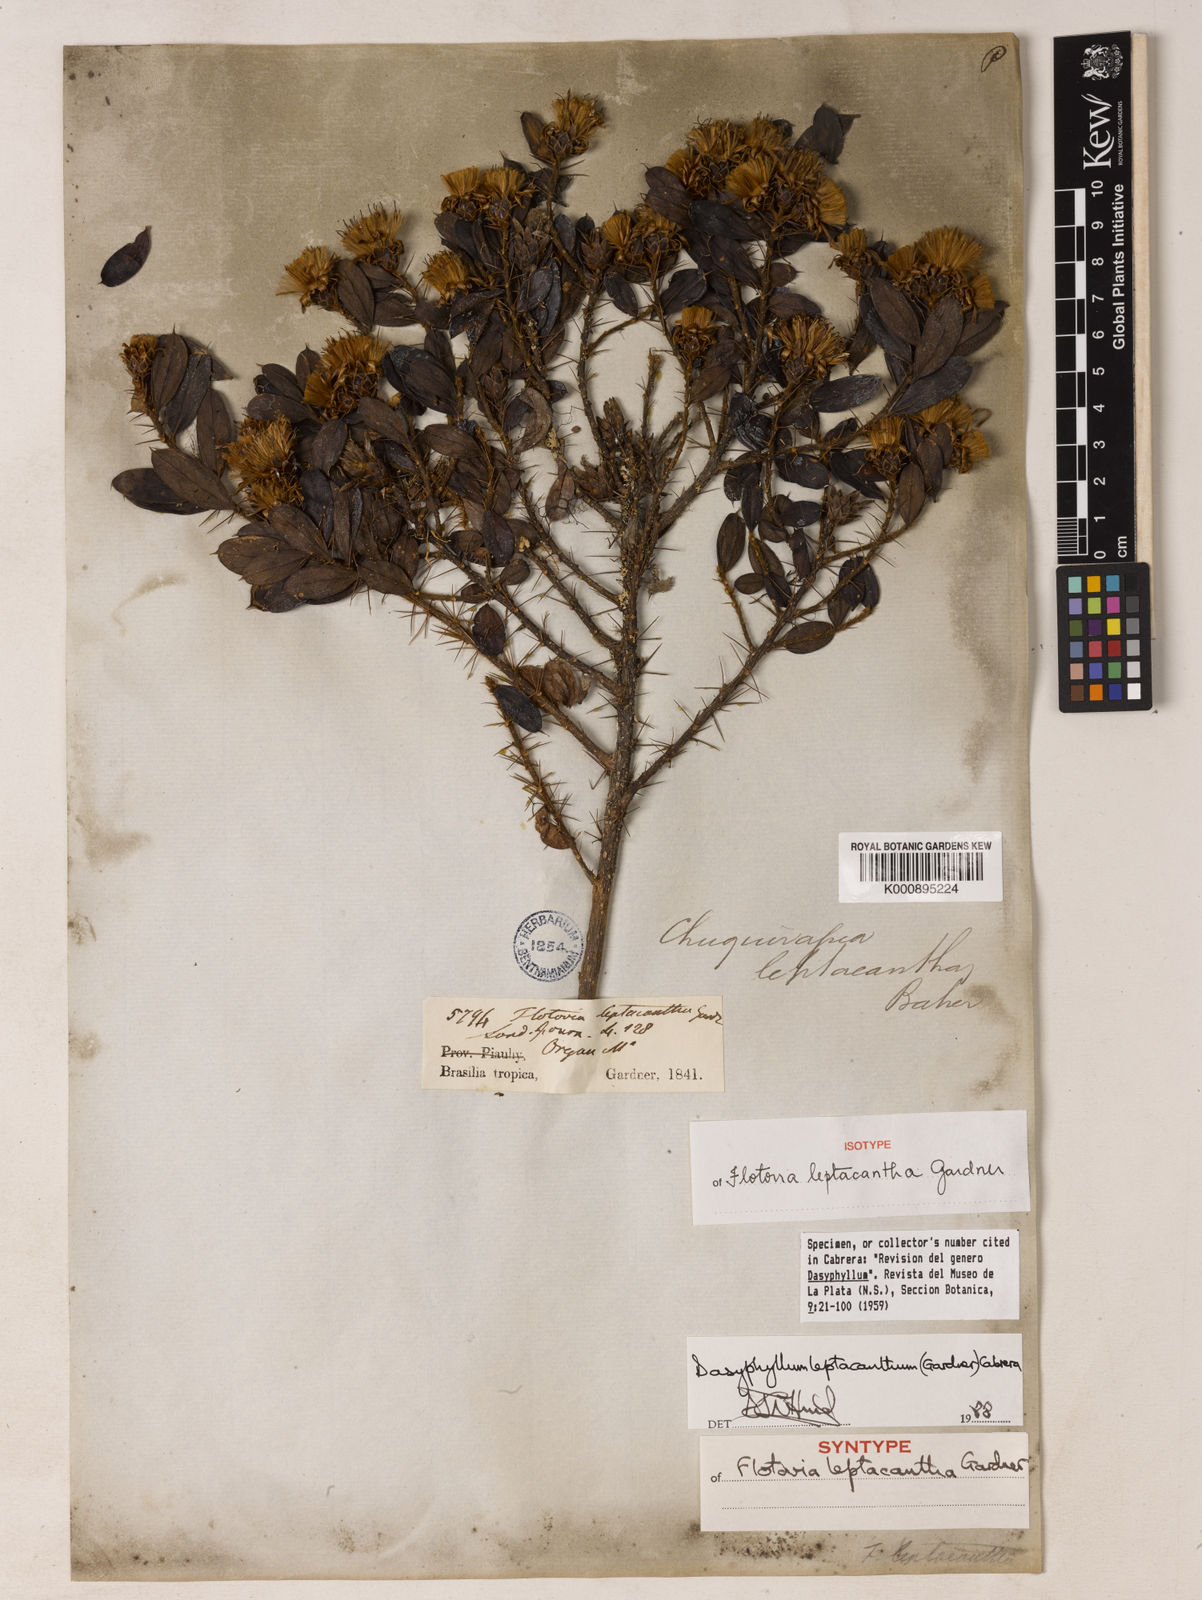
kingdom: Plantae
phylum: Tracheophyta
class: Magnoliopsida
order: Asterales
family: Asteraceae
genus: Dasyphyllum
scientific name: Dasyphyllum leptacanthum
